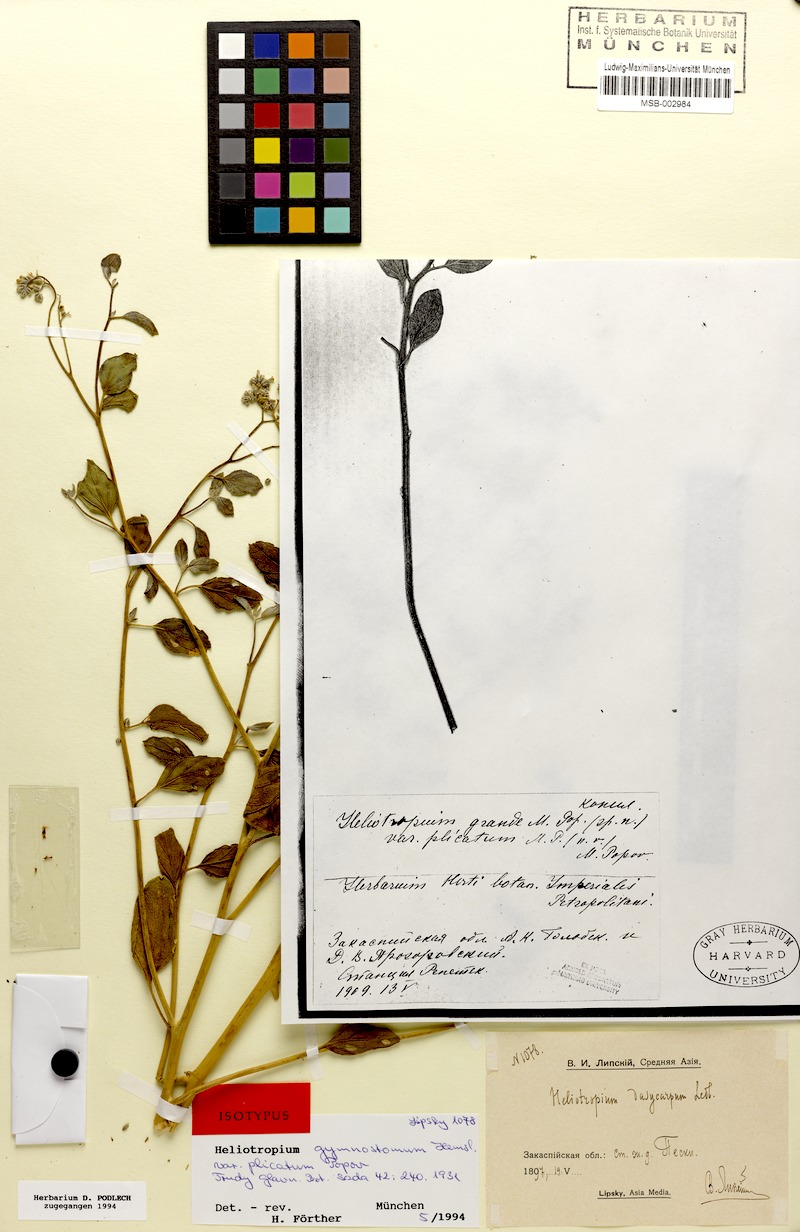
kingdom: Plantae
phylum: Tracheophyta
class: Magnoliopsida
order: Boraginales
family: Heliotropiaceae
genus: Heliotropium
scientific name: Heliotropium dasycarpum
